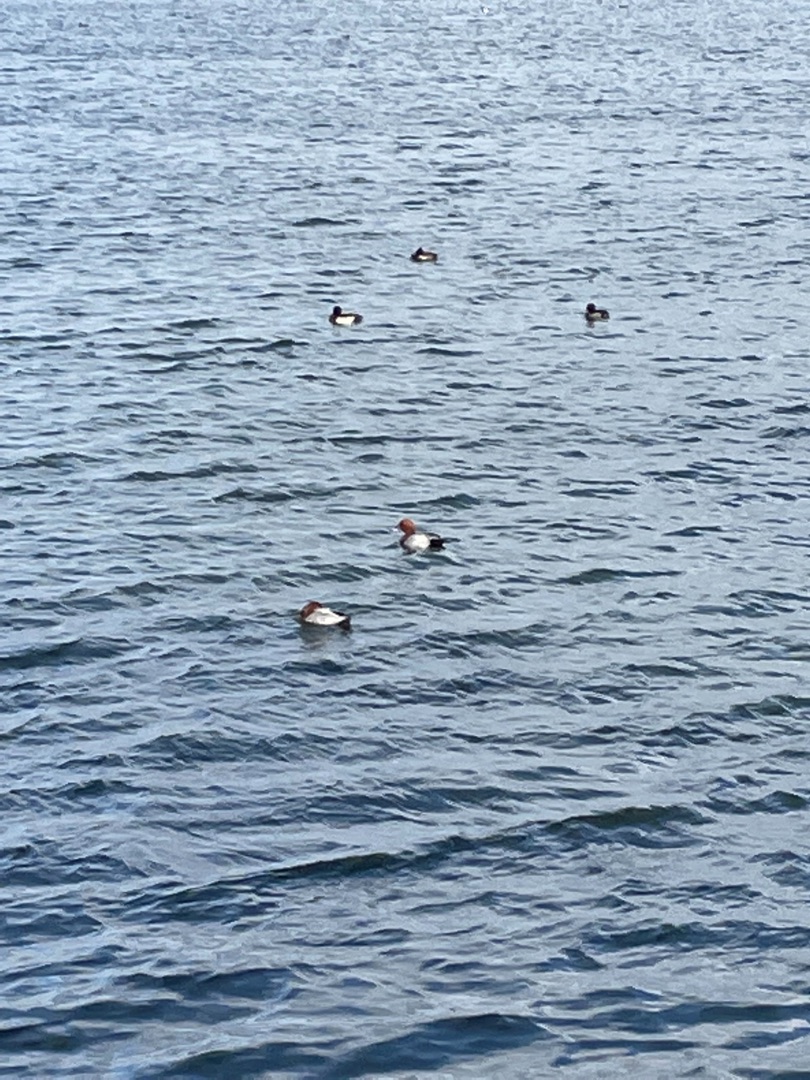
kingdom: Animalia
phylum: Chordata
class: Aves
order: Anseriformes
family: Anatidae
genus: Aythya
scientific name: Aythya ferina
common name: Taffeland
